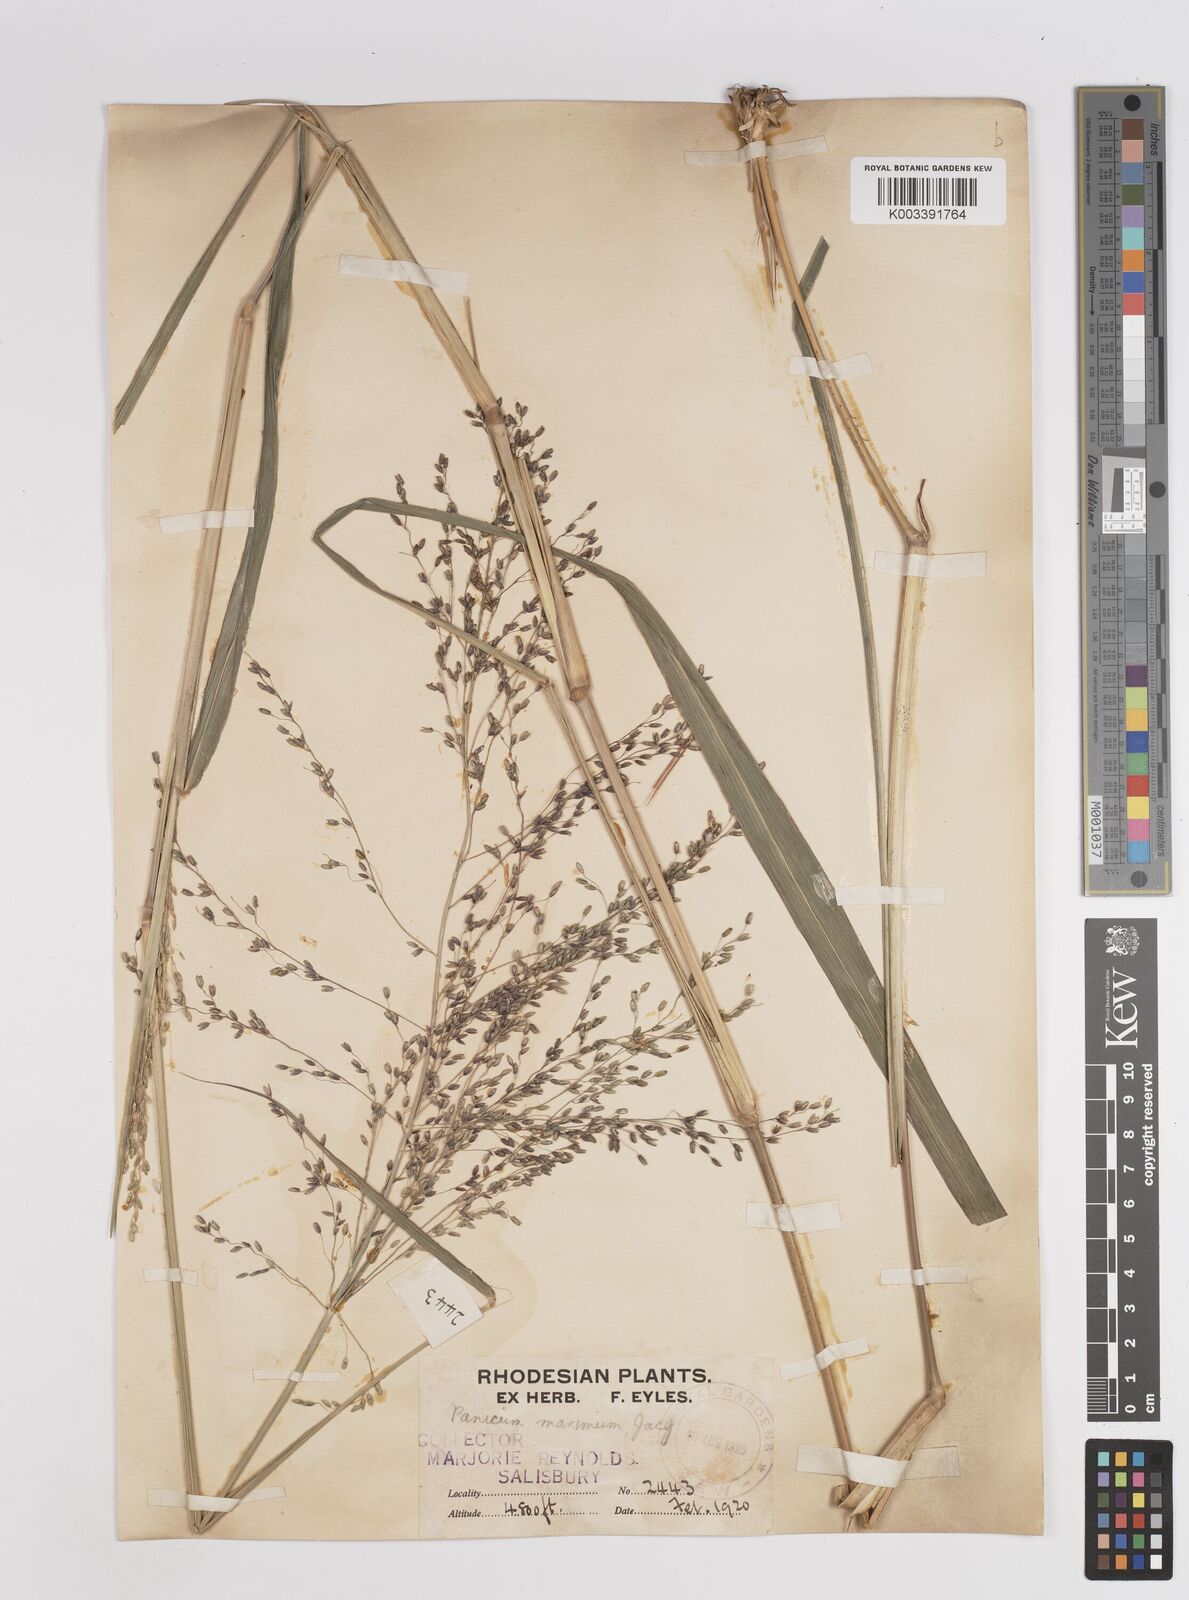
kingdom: Plantae
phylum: Tracheophyta
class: Liliopsida
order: Poales
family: Poaceae
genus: Megathyrsus
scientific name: Megathyrsus maximus
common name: Guineagrass
